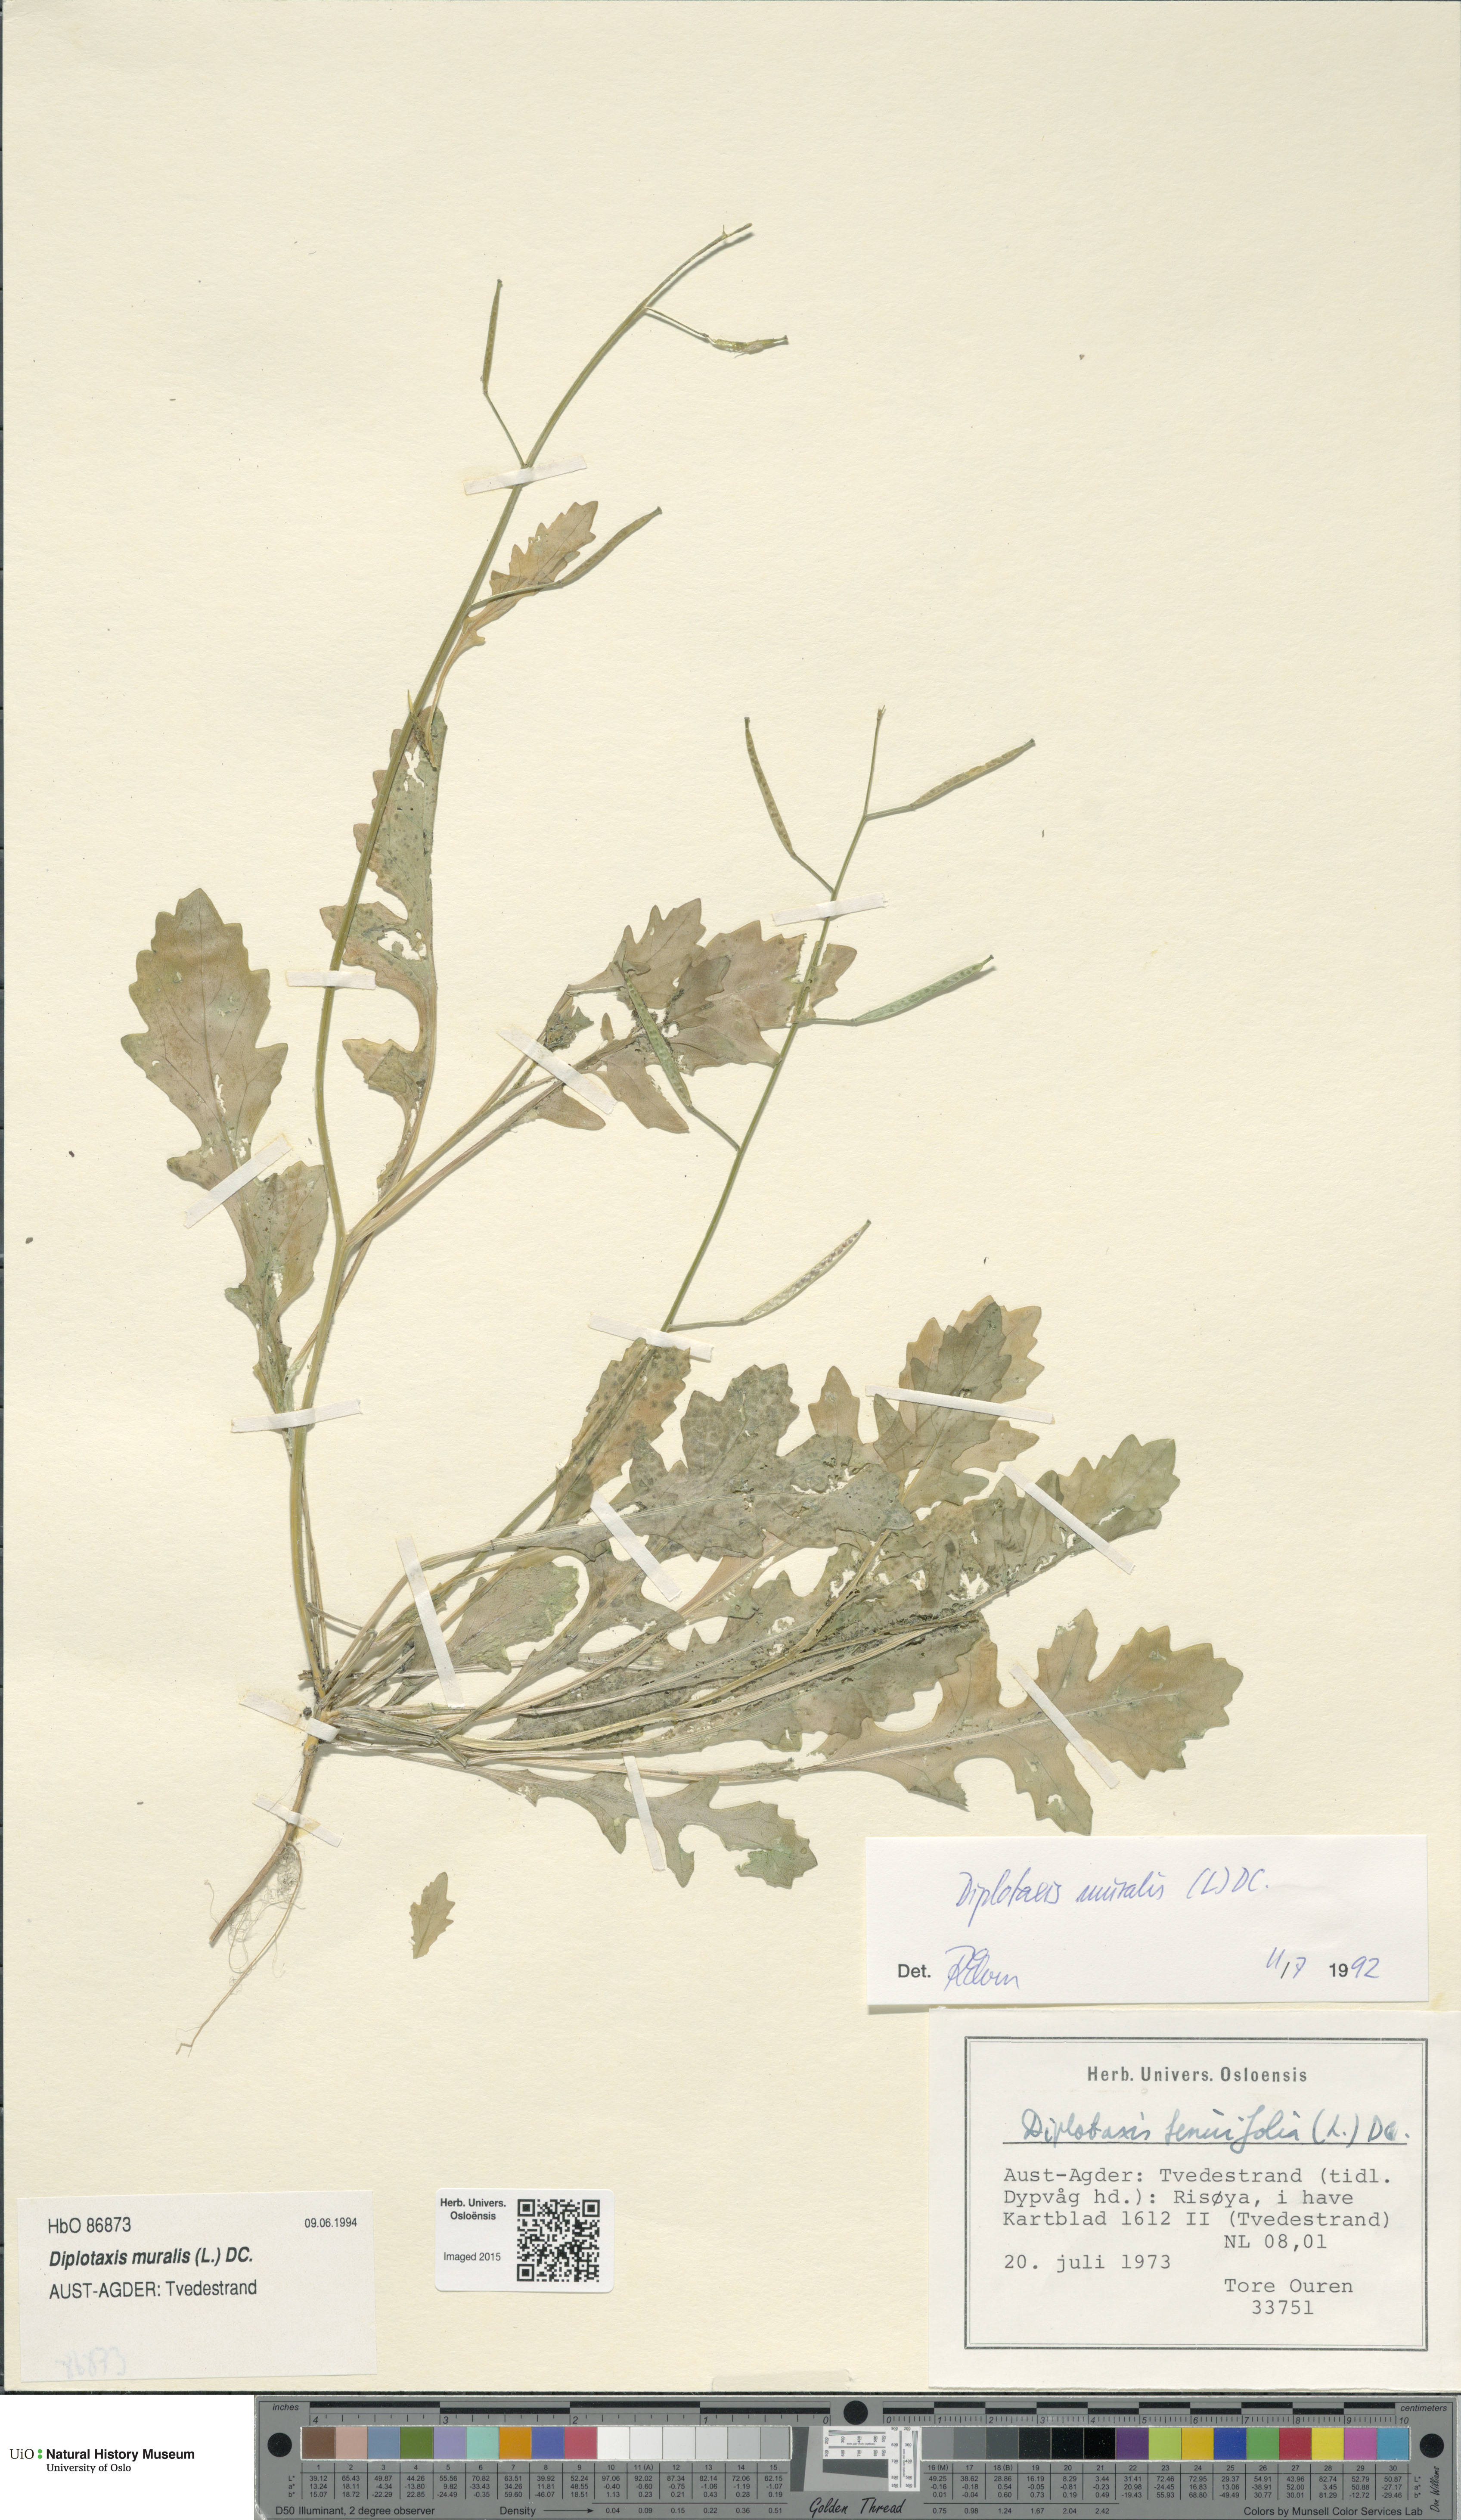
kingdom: Plantae
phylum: Tracheophyta
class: Magnoliopsida
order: Brassicales
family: Brassicaceae
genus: Diplotaxis
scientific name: Diplotaxis muralis
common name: Annual wall-rocket
